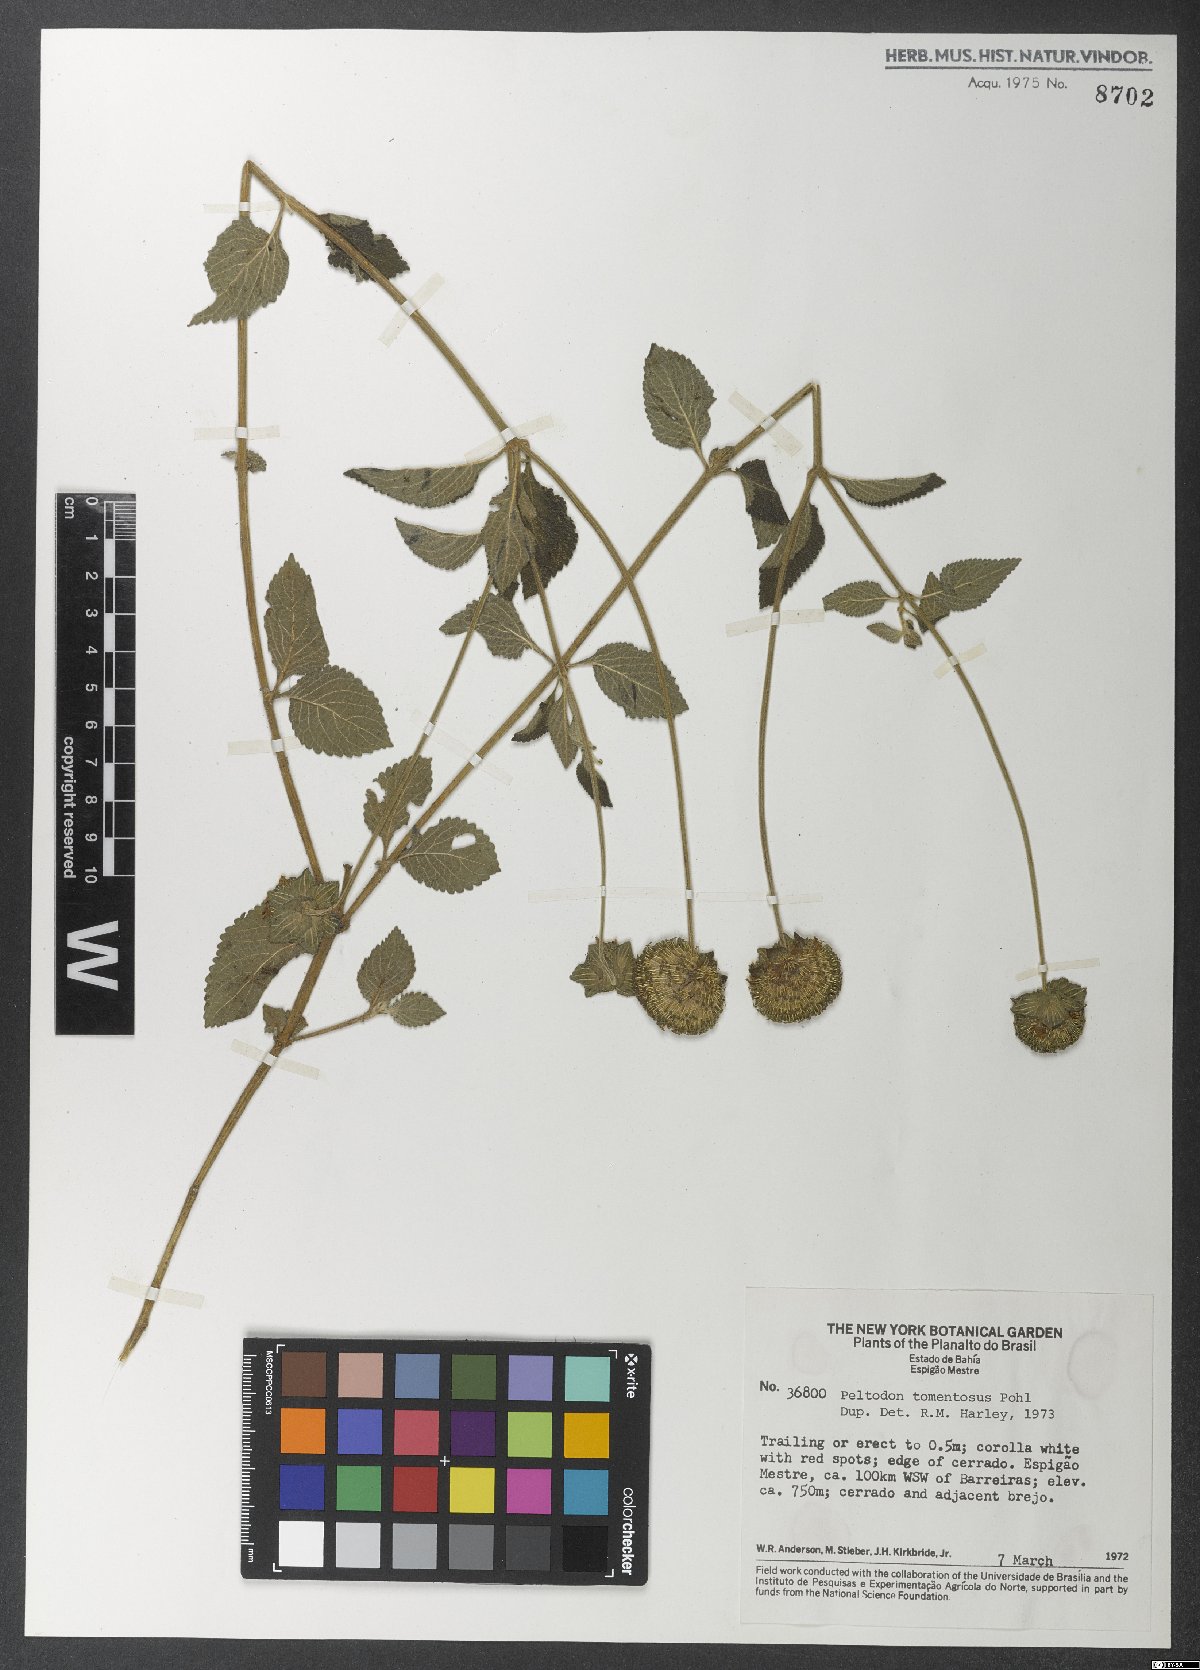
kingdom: Plantae
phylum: Tracheophyta
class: Magnoliopsida
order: Lamiales
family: Lamiaceae
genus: Hyptis
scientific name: Hyptis campestris
